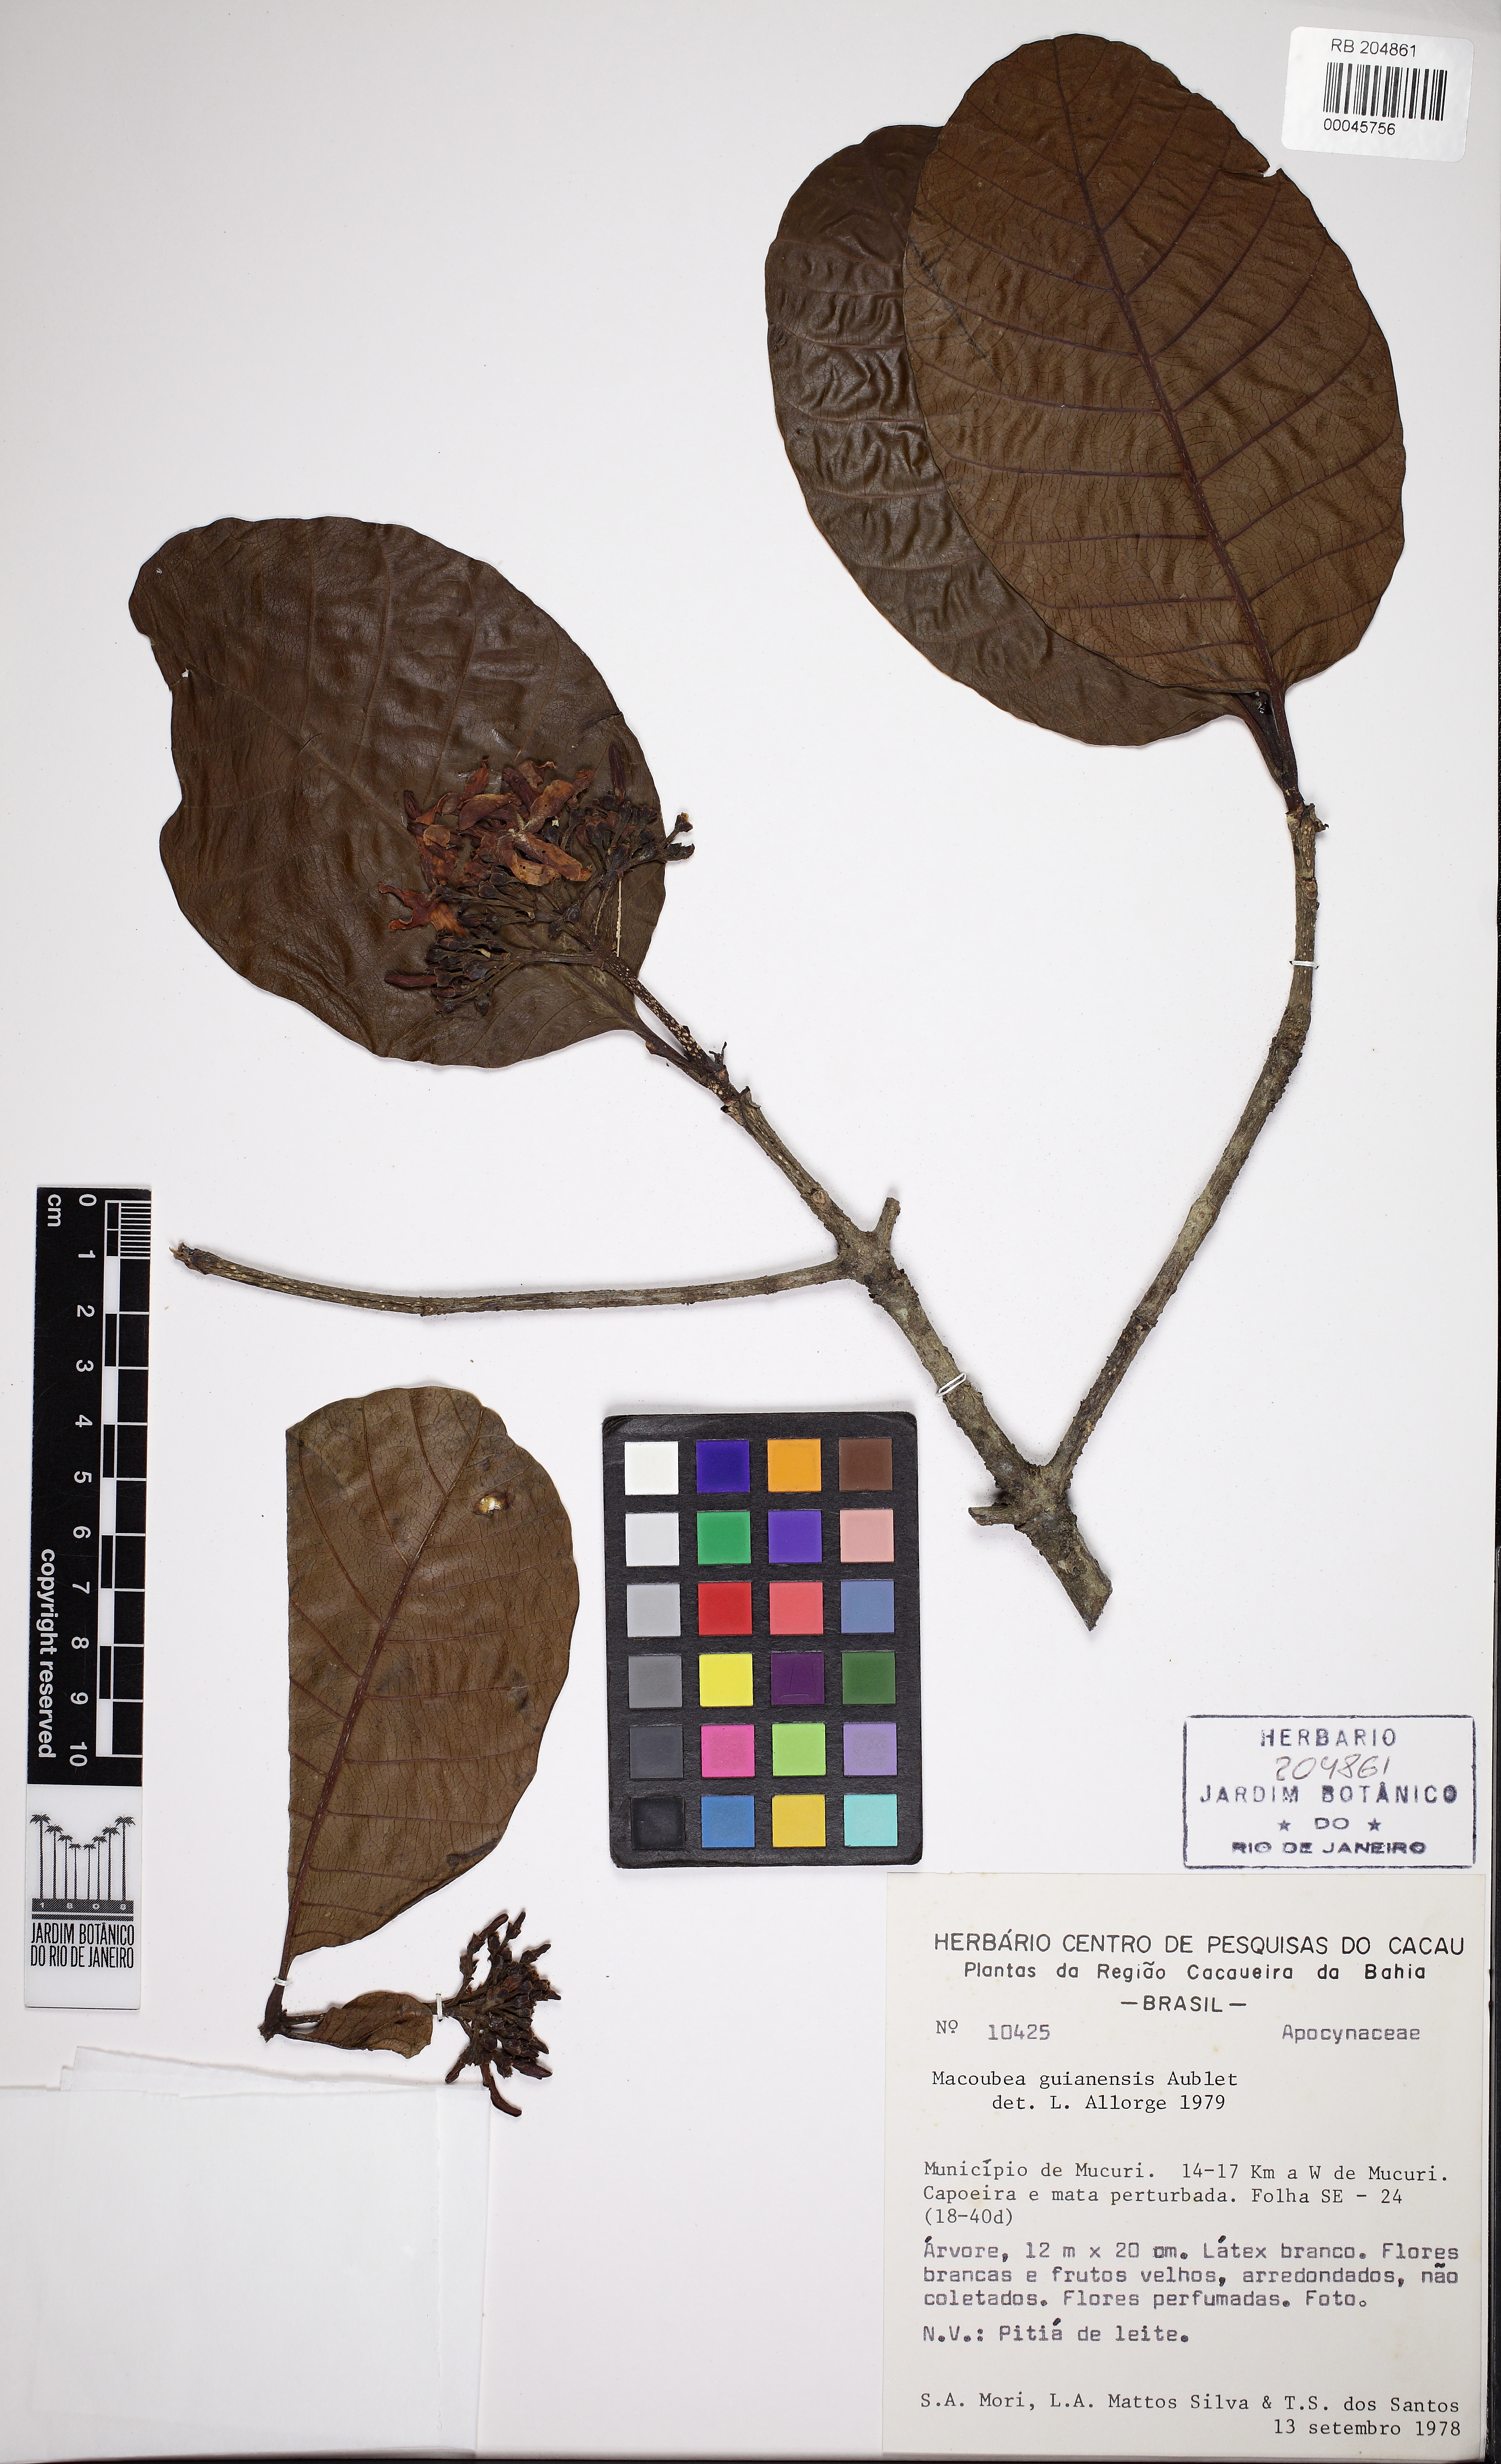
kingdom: Plantae
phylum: Tracheophyta
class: Magnoliopsida
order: Gentianales
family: Apocynaceae
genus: Macoubea
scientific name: Macoubea guianensis
